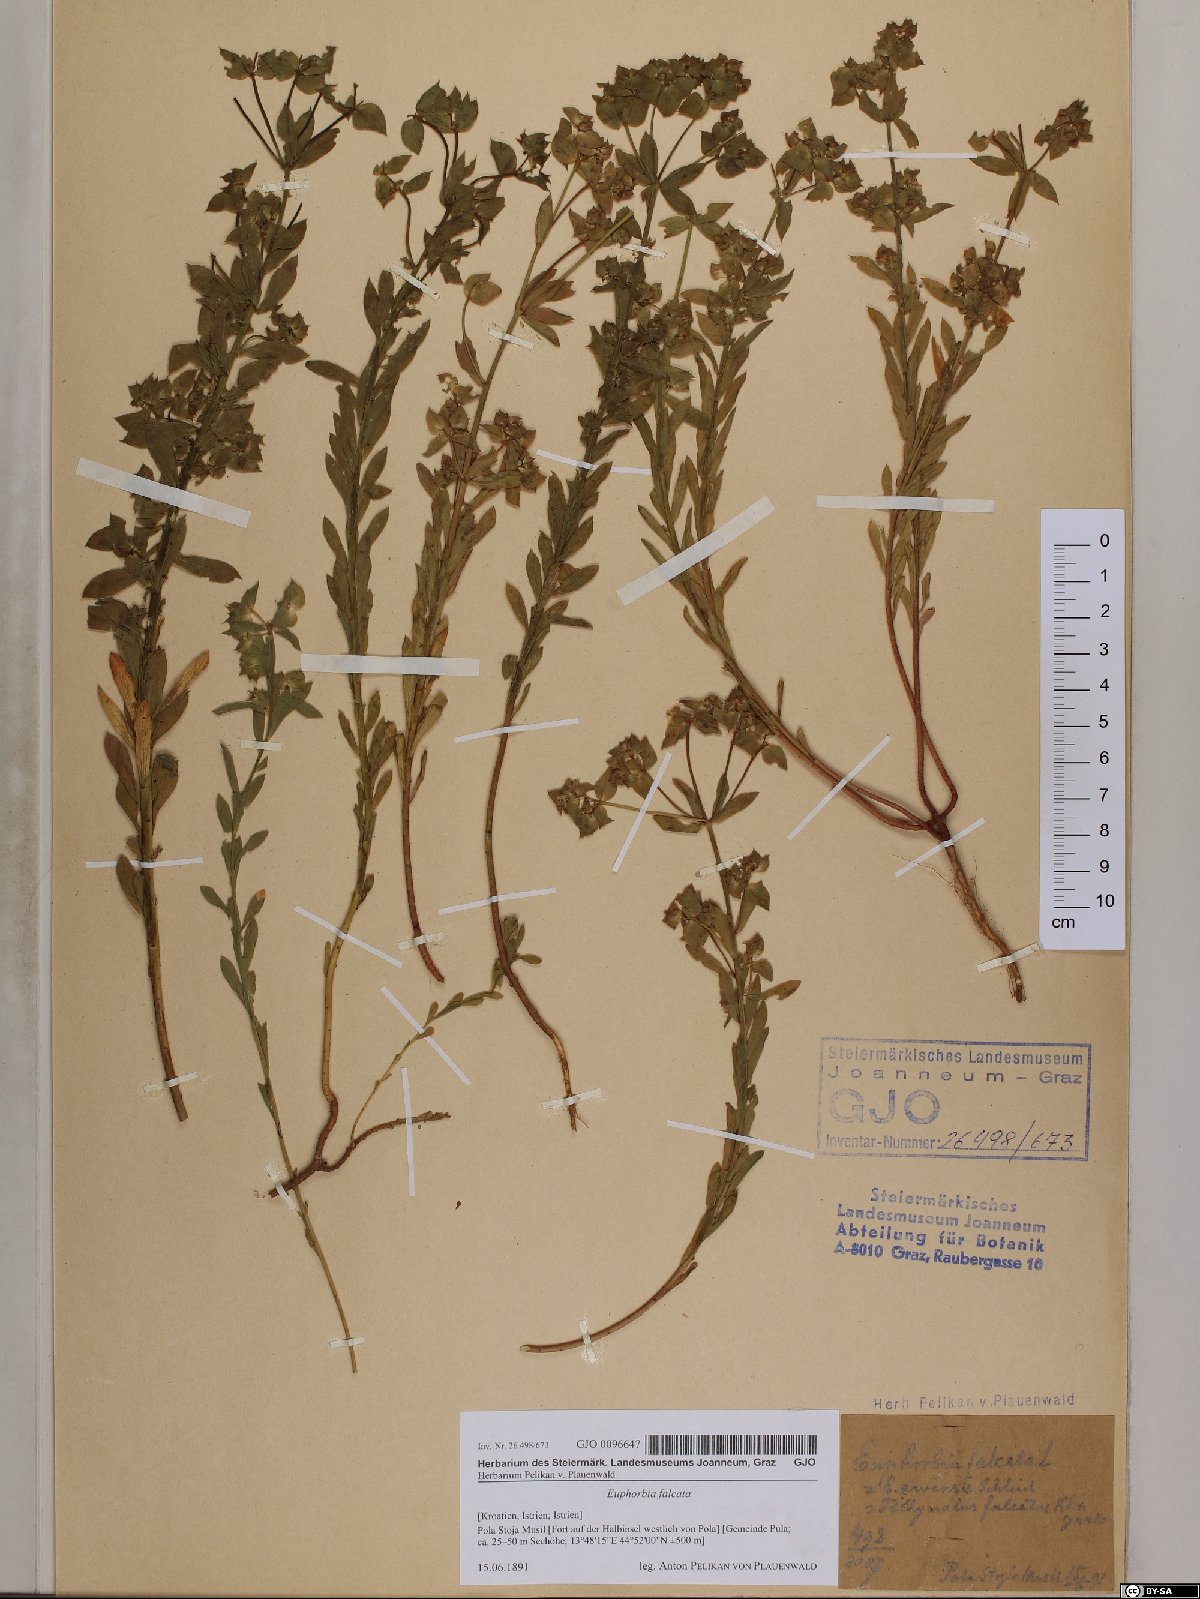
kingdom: Plantae
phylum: Tracheophyta
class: Magnoliopsida
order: Malpighiales
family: Euphorbiaceae
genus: Euphorbia
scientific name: Euphorbia falcata
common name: Sickle spurge
